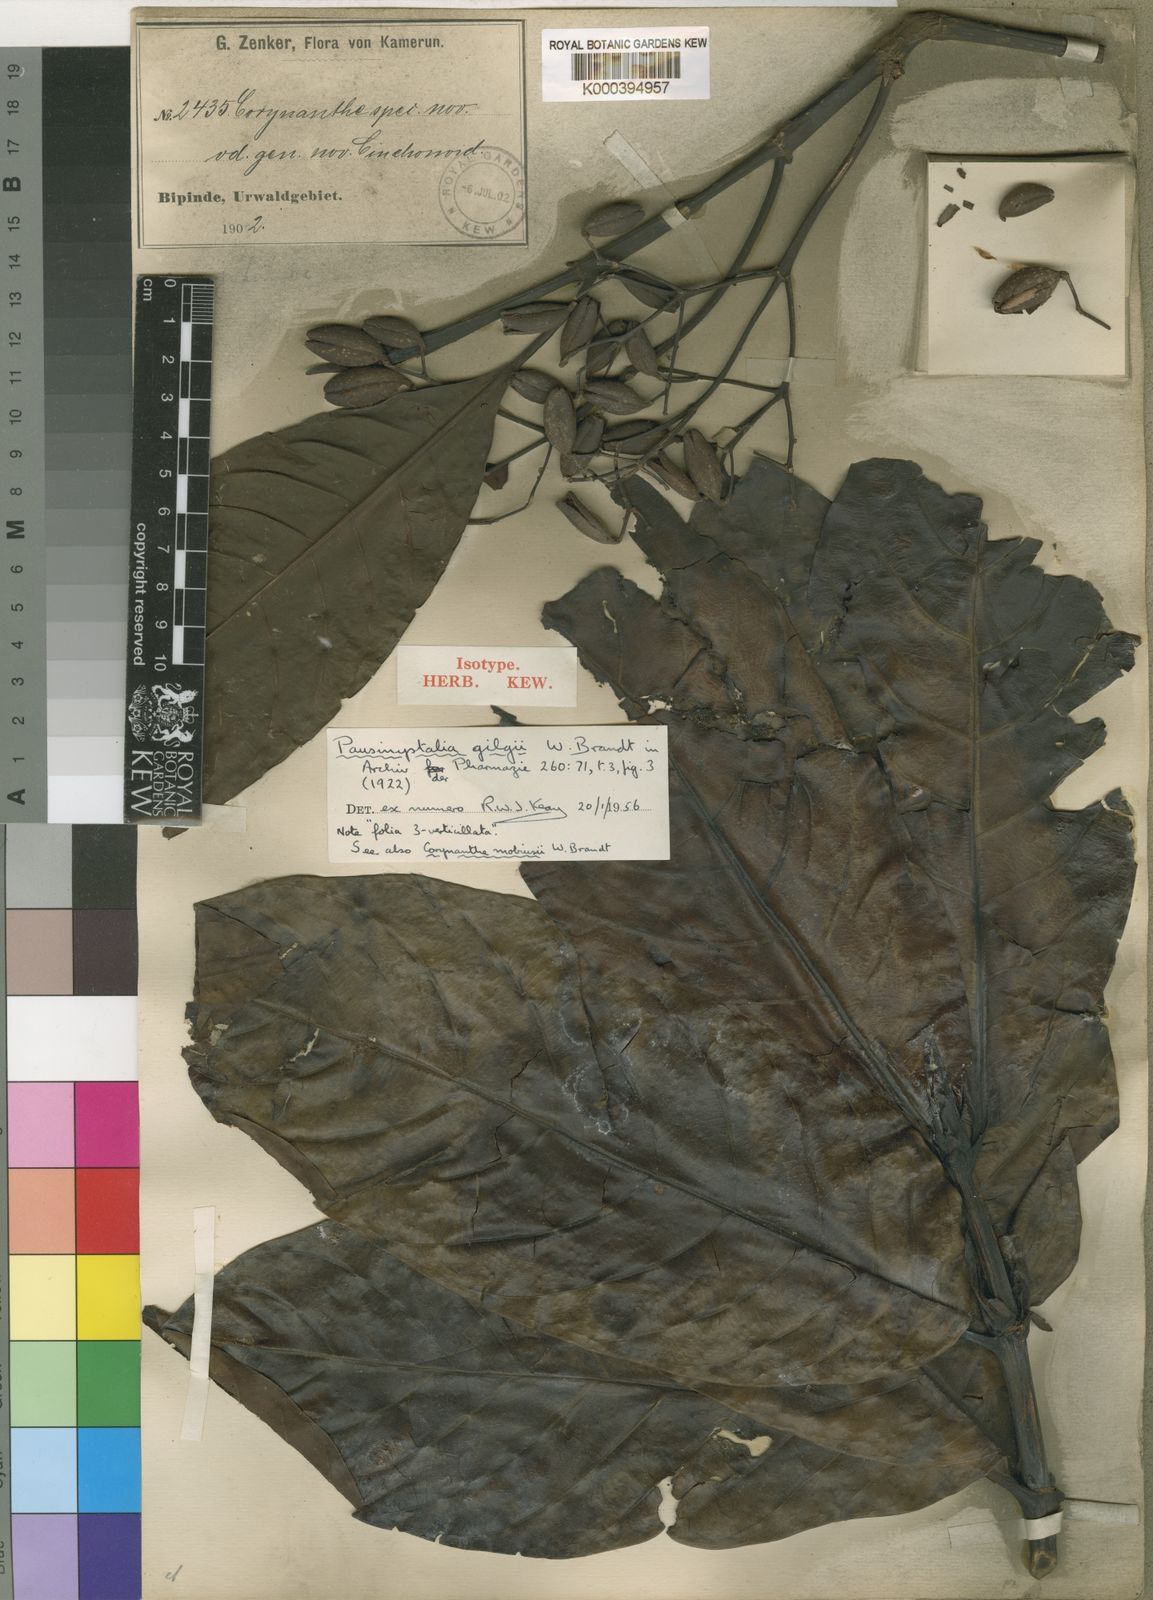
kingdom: Plantae
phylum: Tracheophyta
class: Magnoliopsida
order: Gentianales
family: Rubiaceae
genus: Corynanthe
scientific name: Corynanthe talbotii
